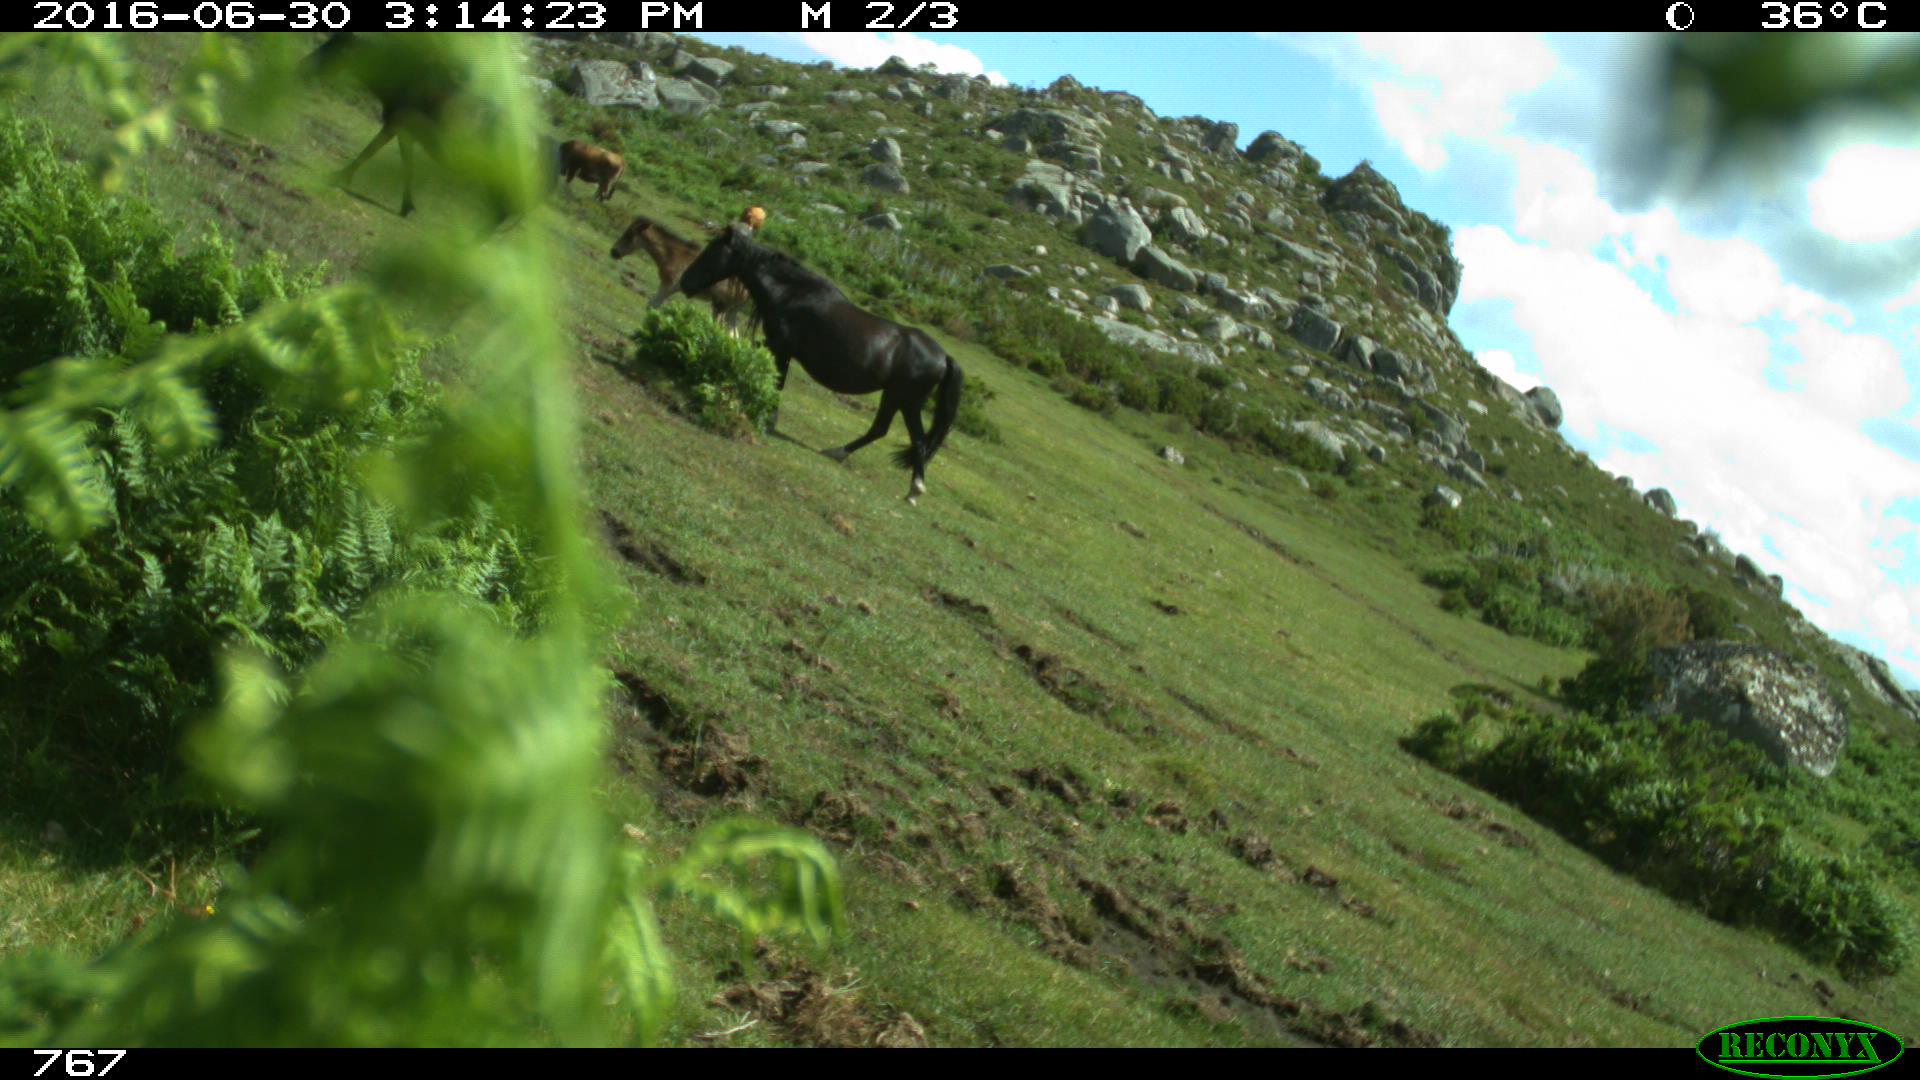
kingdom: Animalia
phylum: Chordata
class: Mammalia
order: Artiodactyla
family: Bovidae
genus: Bos
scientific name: Bos taurus
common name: Domesticated cattle
